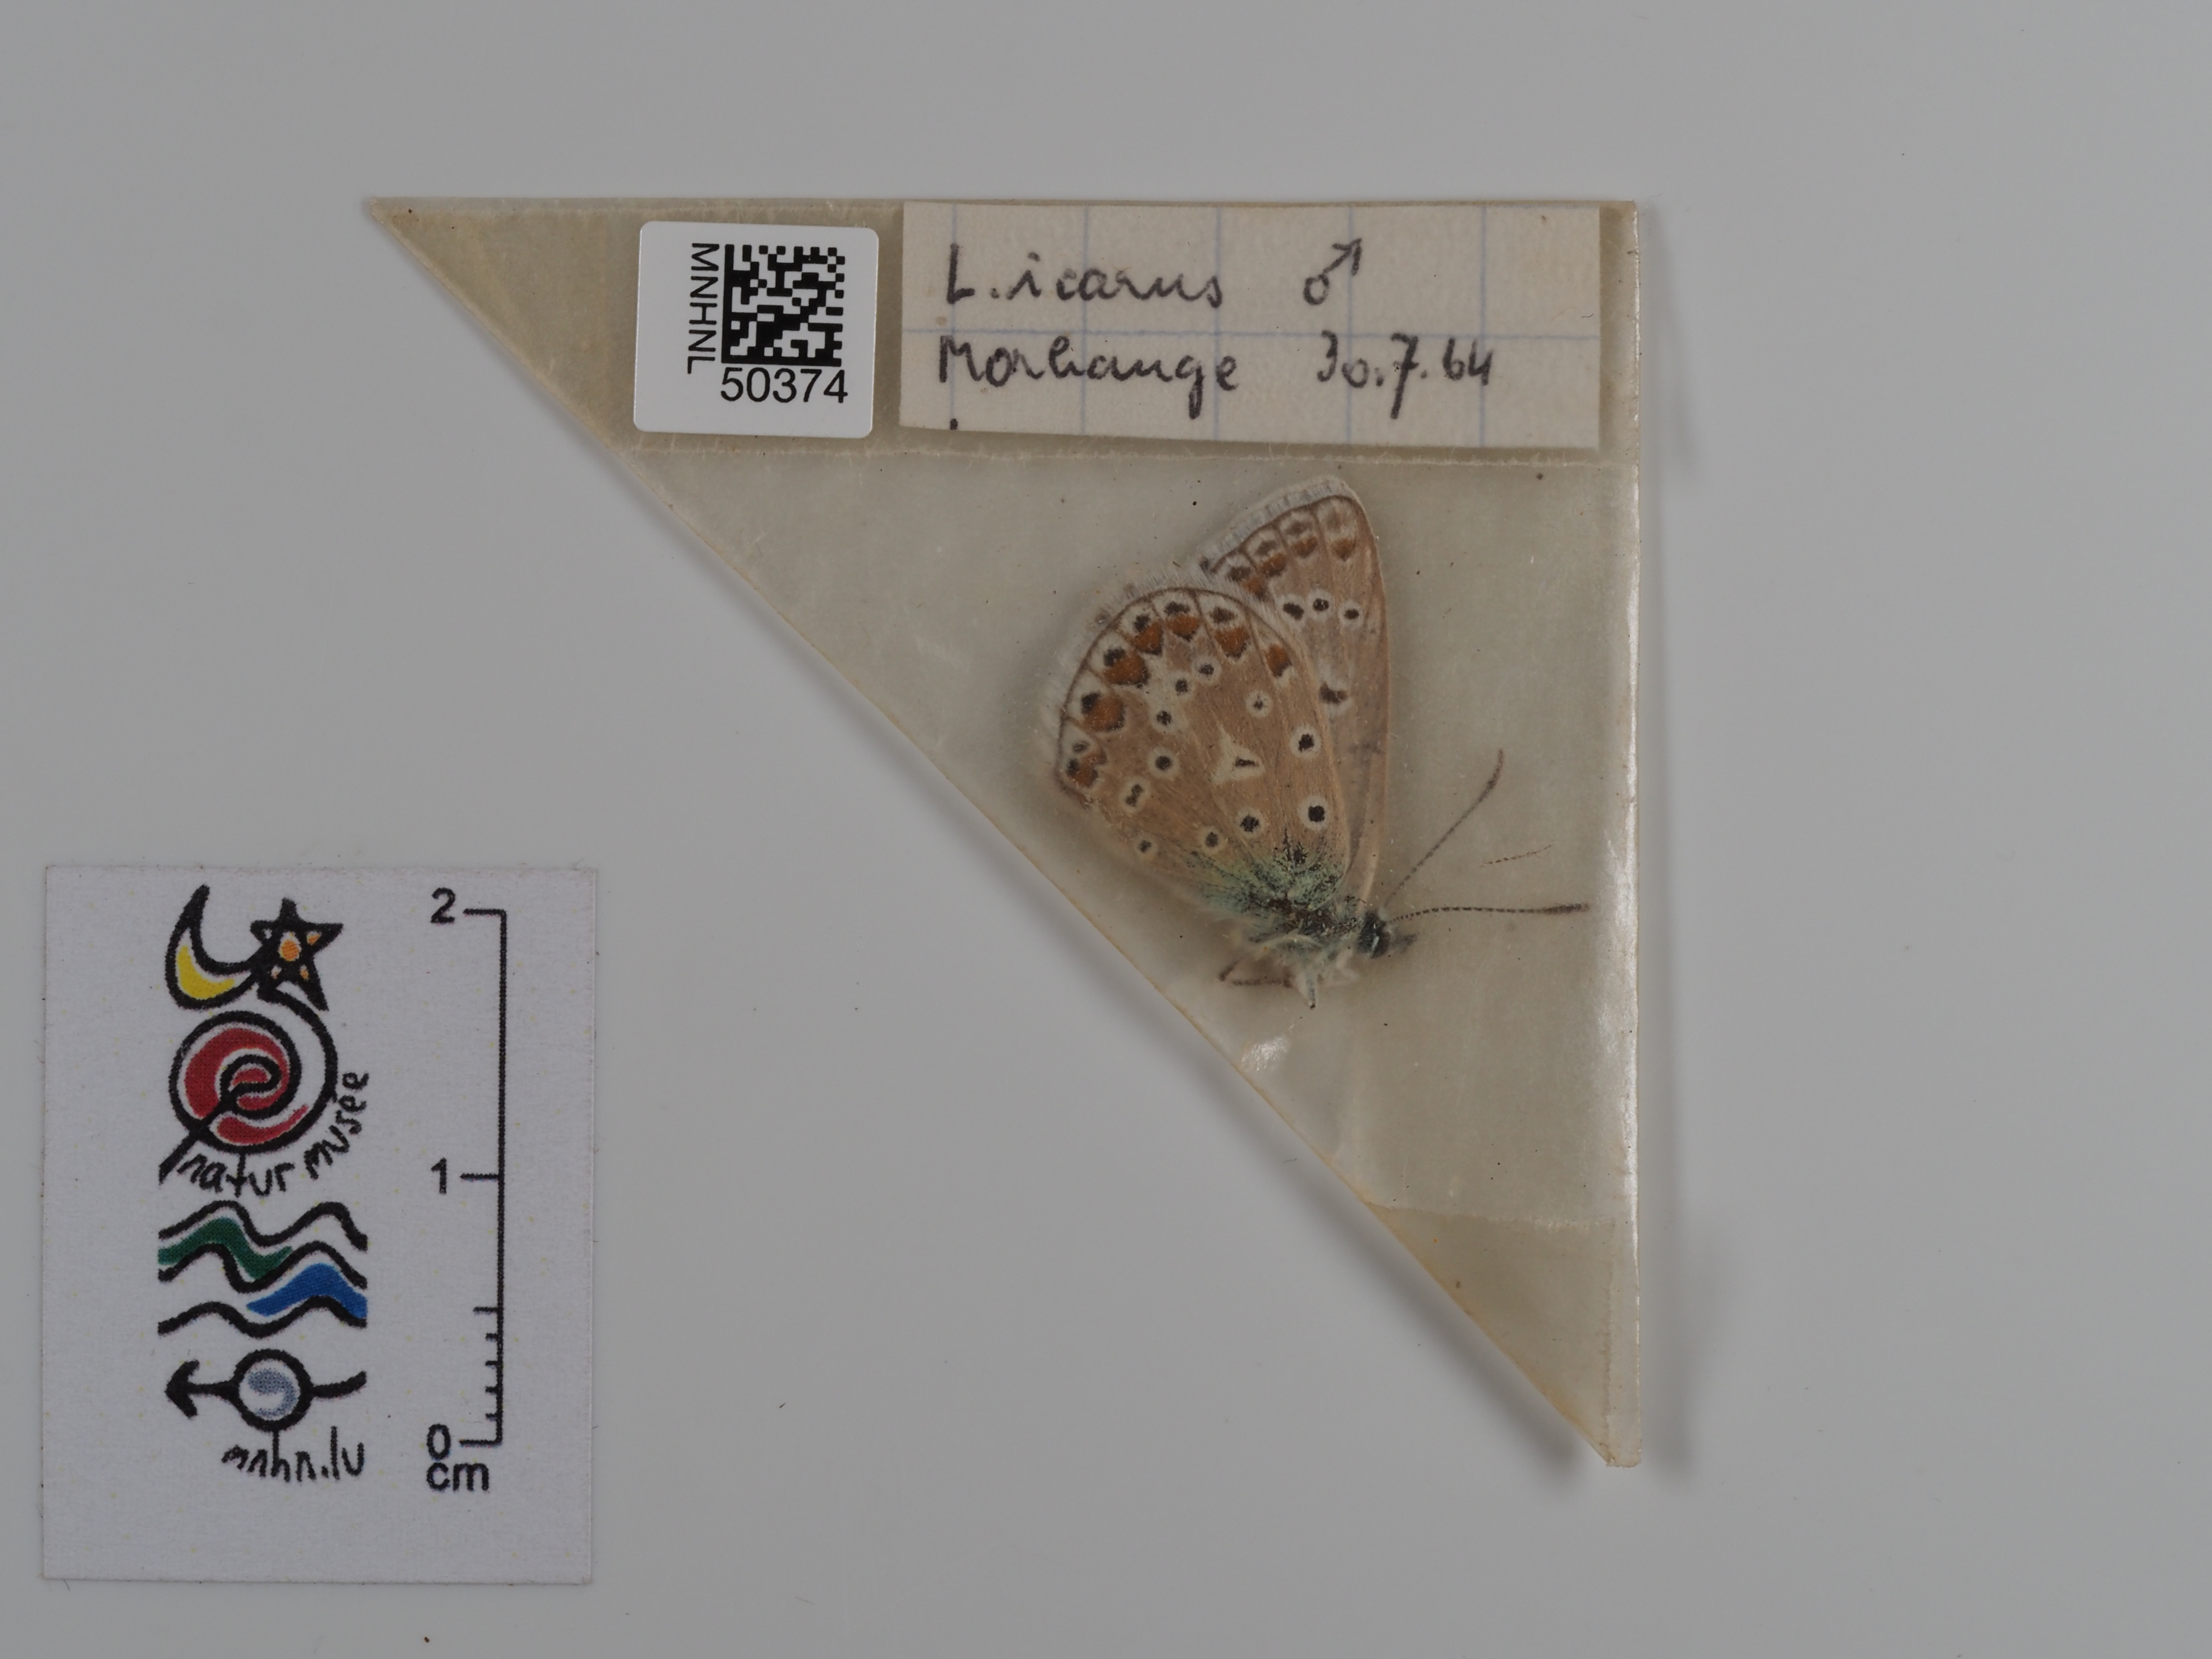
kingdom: Animalia
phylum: Arthropoda
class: Insecta
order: Lepidoptera
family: Lycaenidae
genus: Polyommatus
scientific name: Polyommatus icarus
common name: Common blue
